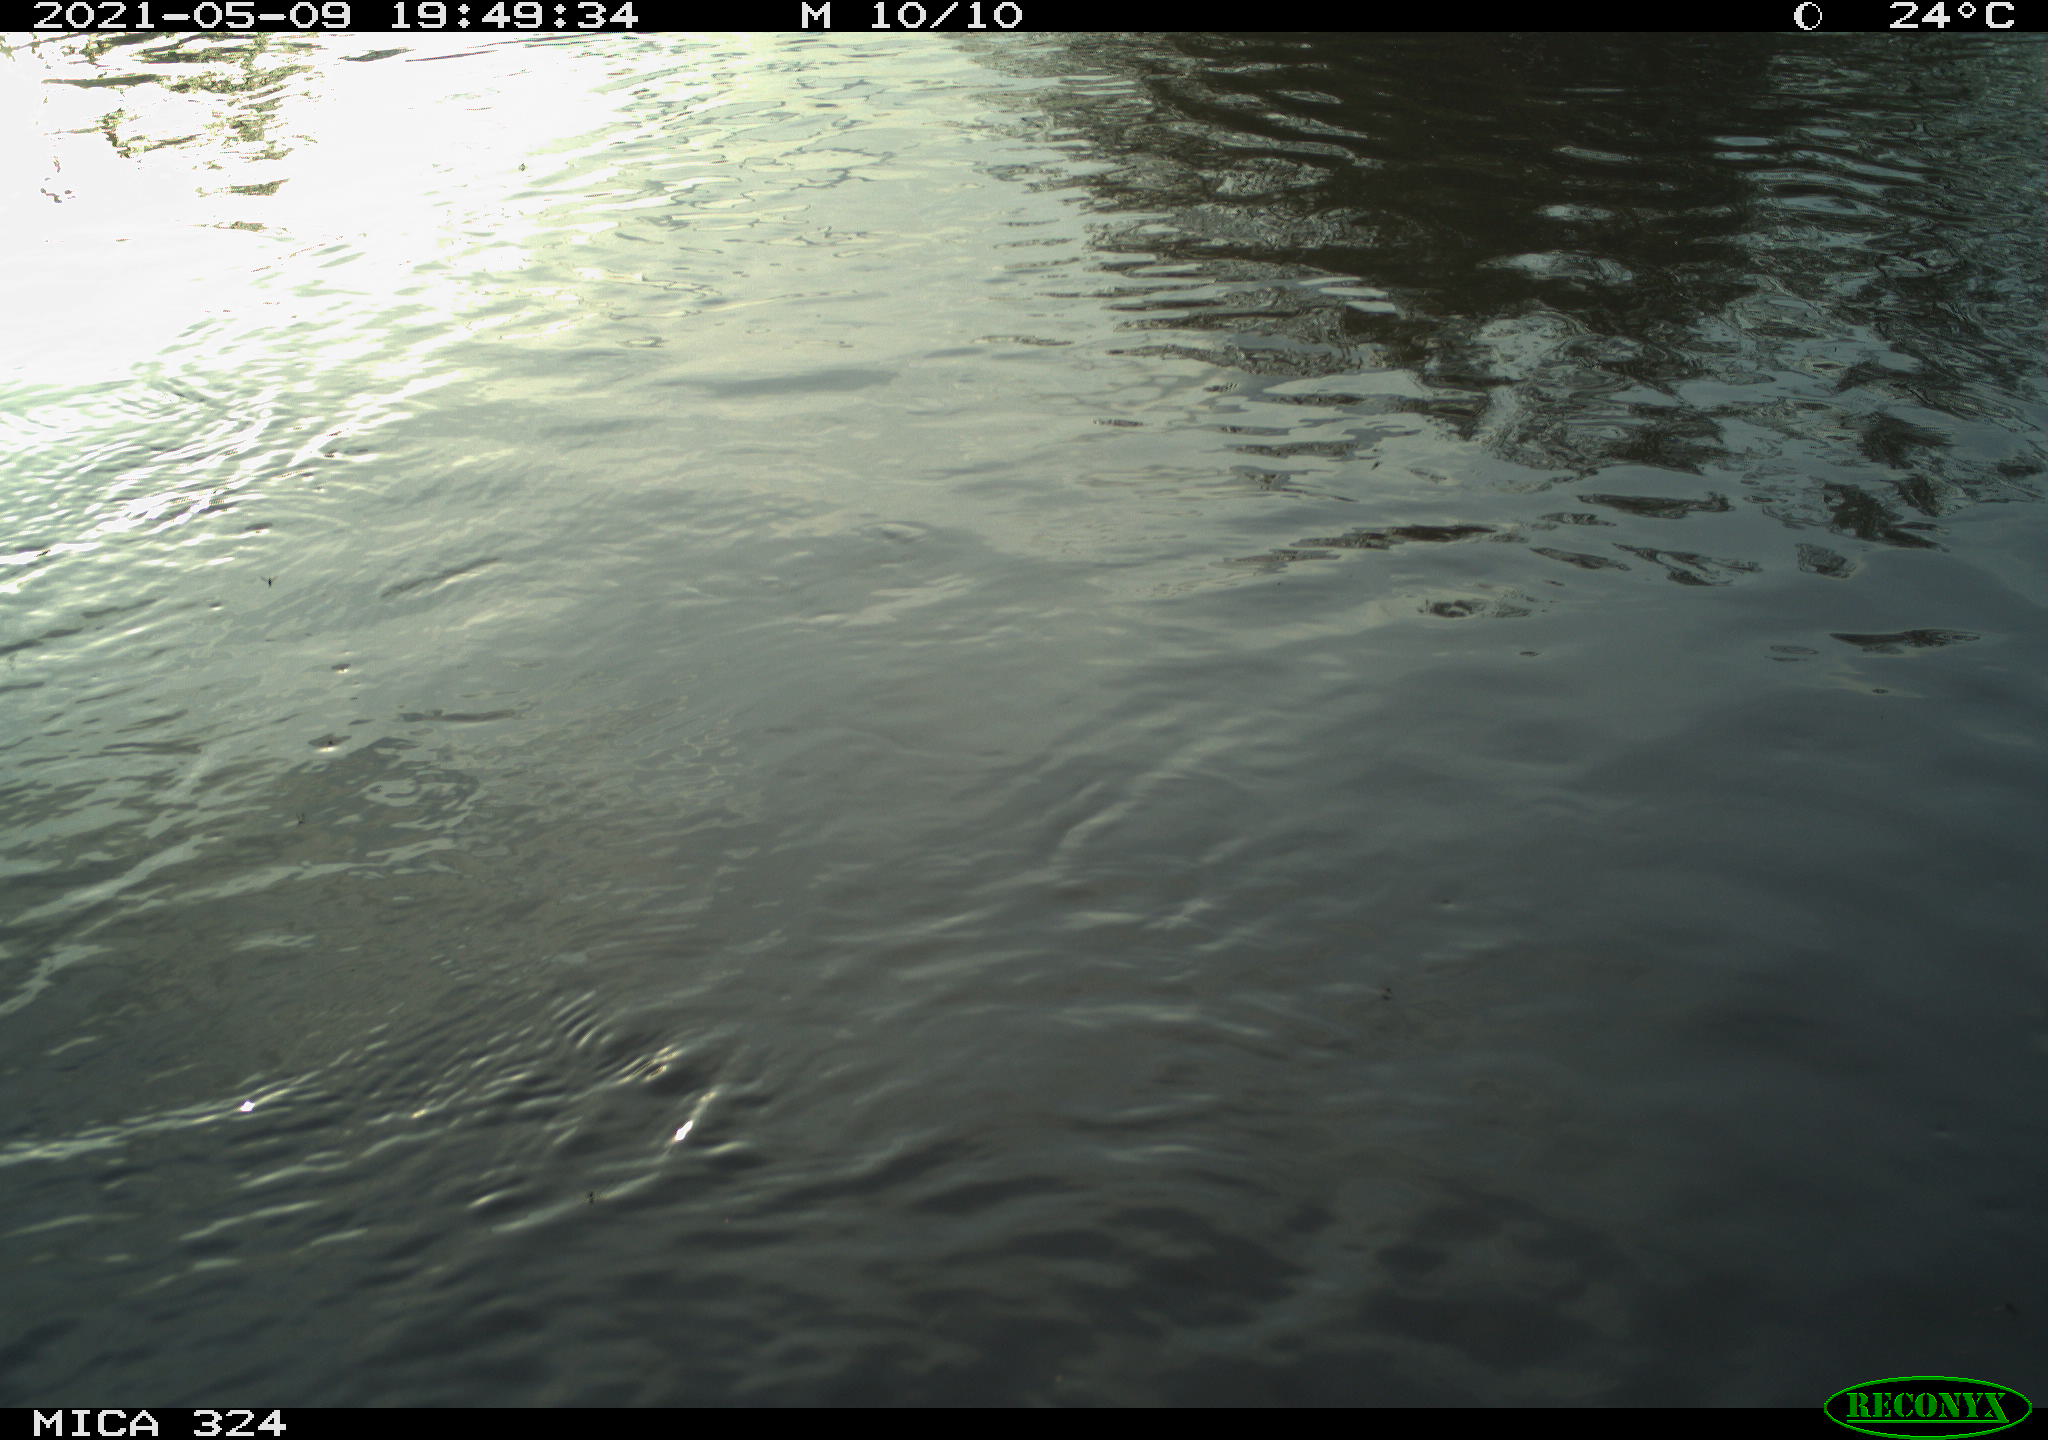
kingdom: Animalia
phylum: Chordata
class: Mammalia
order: Rodentia
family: Cricetidae
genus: Ondatra
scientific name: Ondatra zibethicus
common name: Muskrat
